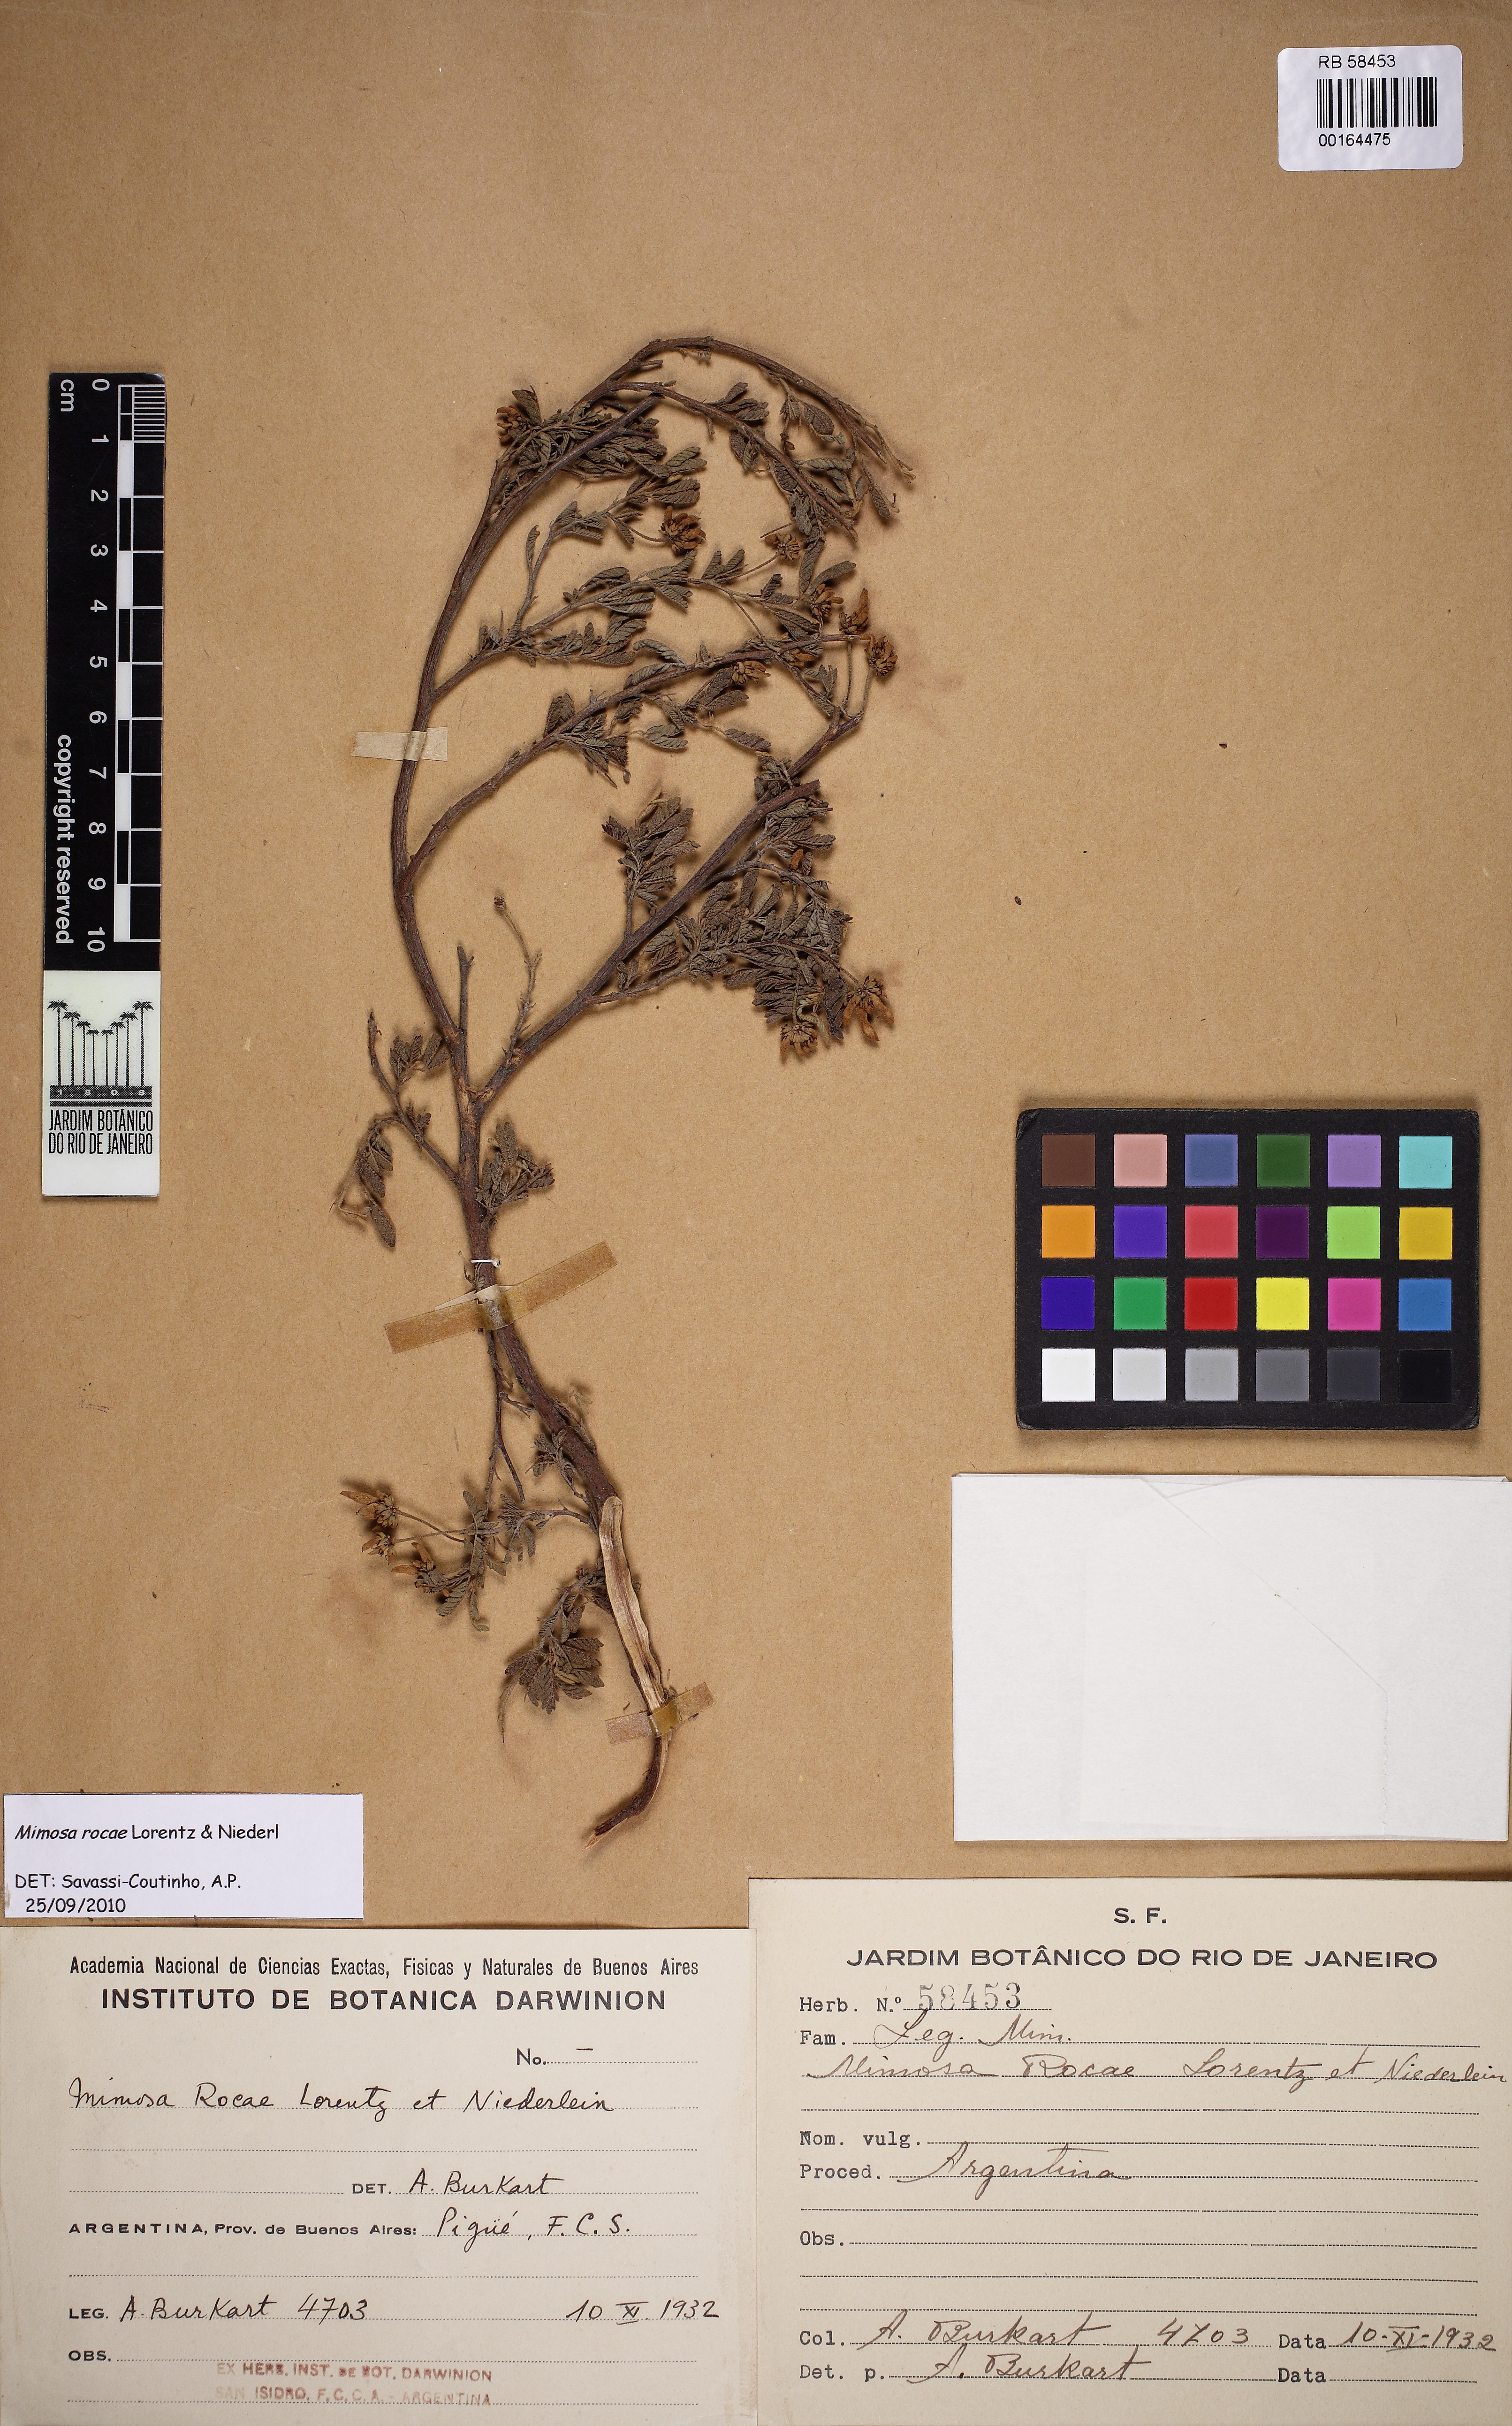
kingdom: Plantae
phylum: Tracheophyta
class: Magnoliopsida
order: Fabales
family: Fabaceae
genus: Mimosa
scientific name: Mimosa rocae
